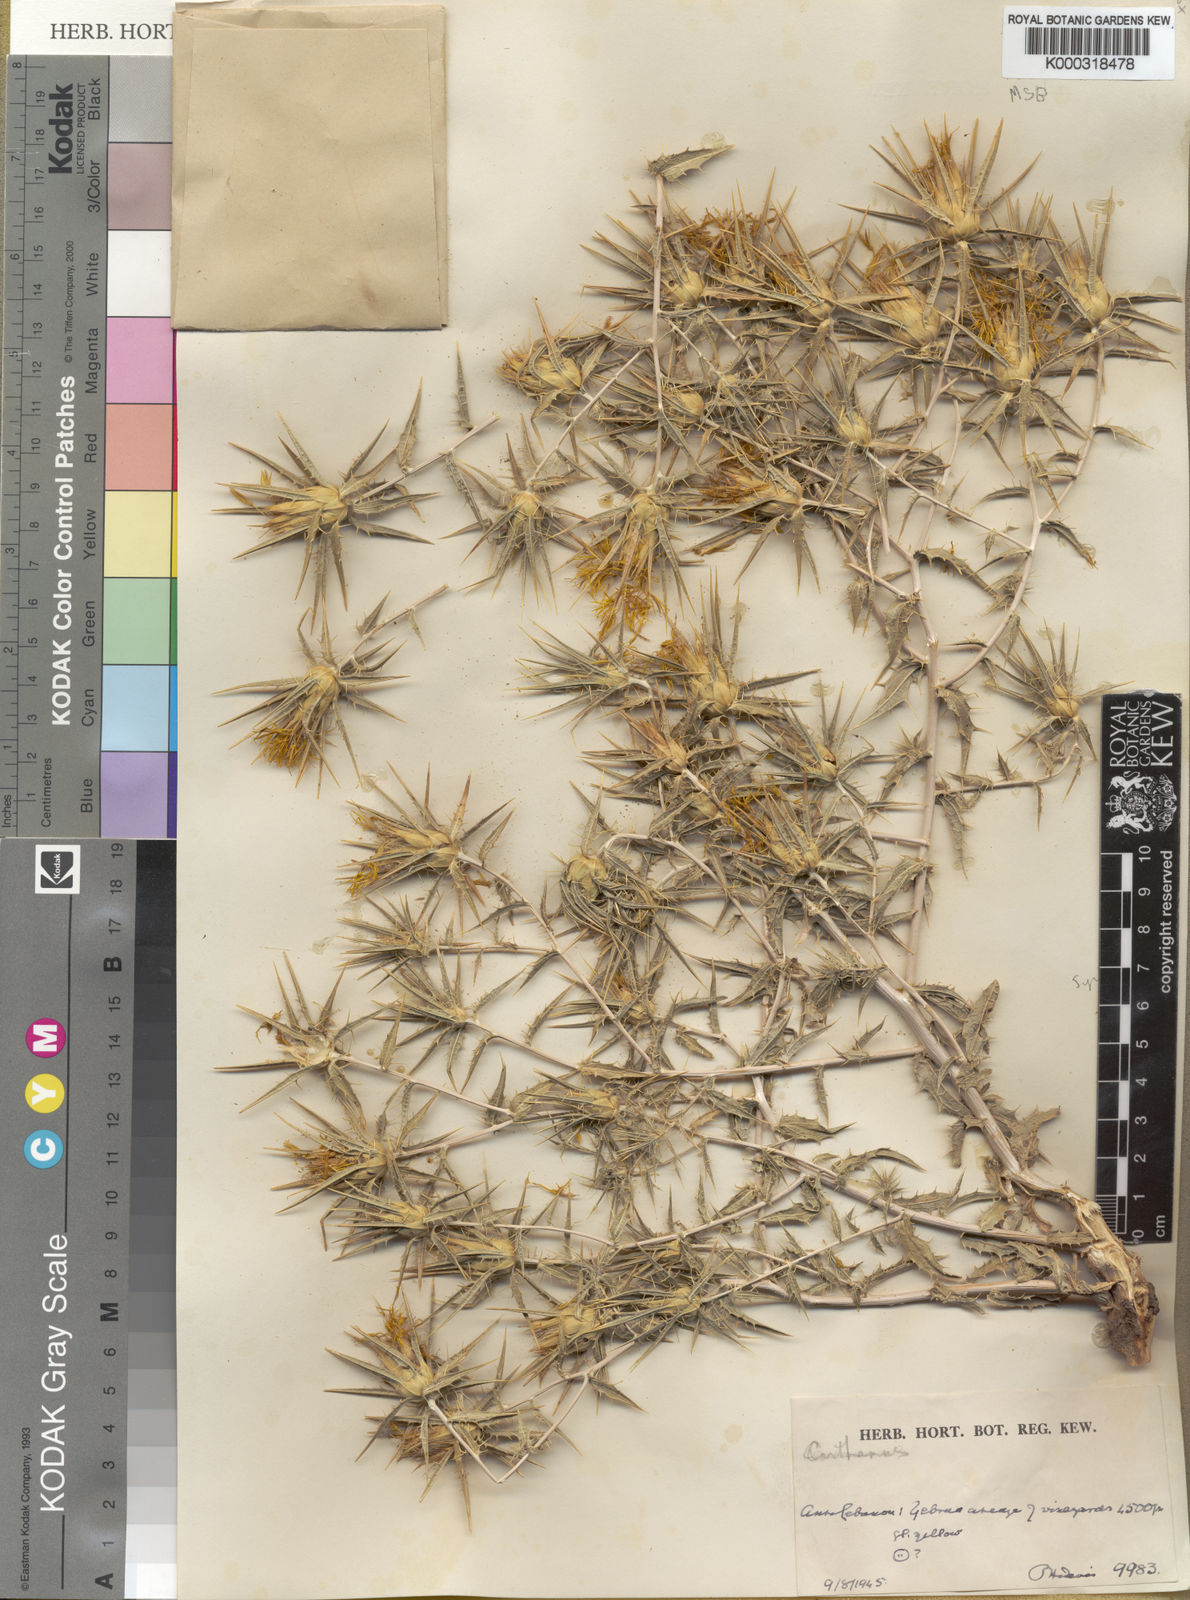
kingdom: Plantae
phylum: Tracheophyta
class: Magnoliopsida
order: Asterales
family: Asteraceae
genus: Carthamus
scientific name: Carthamus persicus
